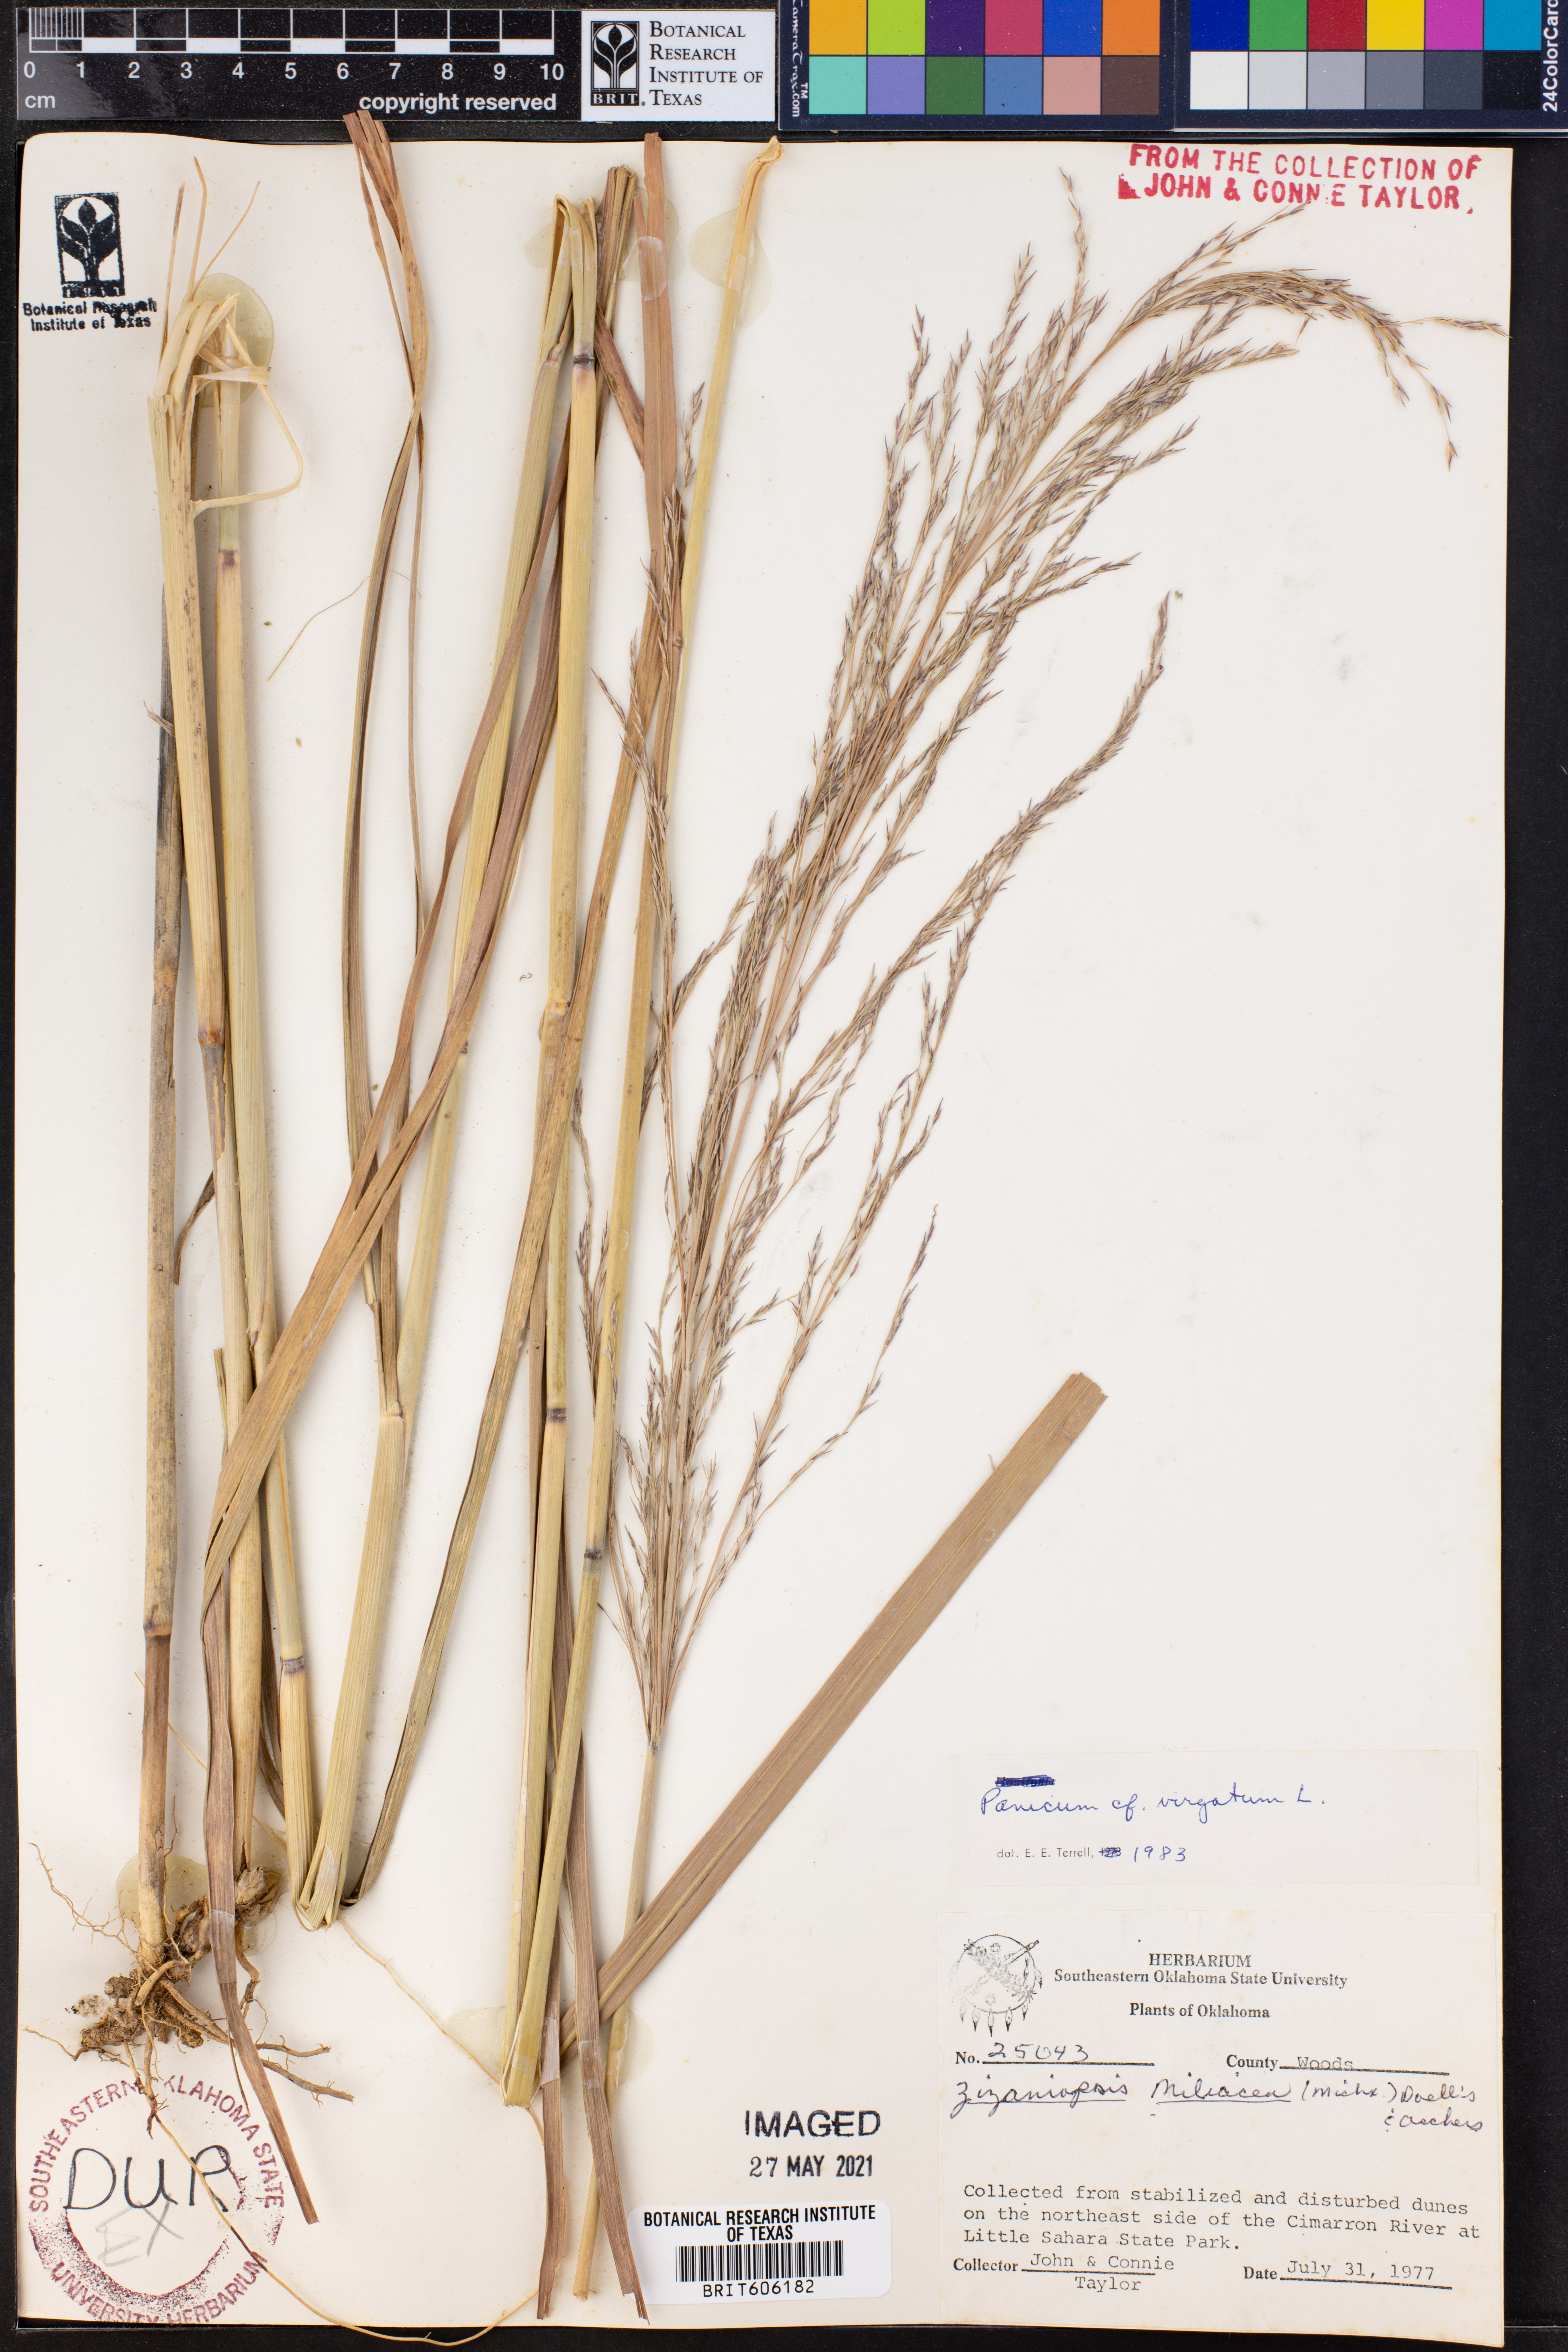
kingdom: Plantae
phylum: Tracheophyta
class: Liliopsida
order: Poales
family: Poaceae
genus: Panicum
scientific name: Panicum virgatum
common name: Switchgrass
